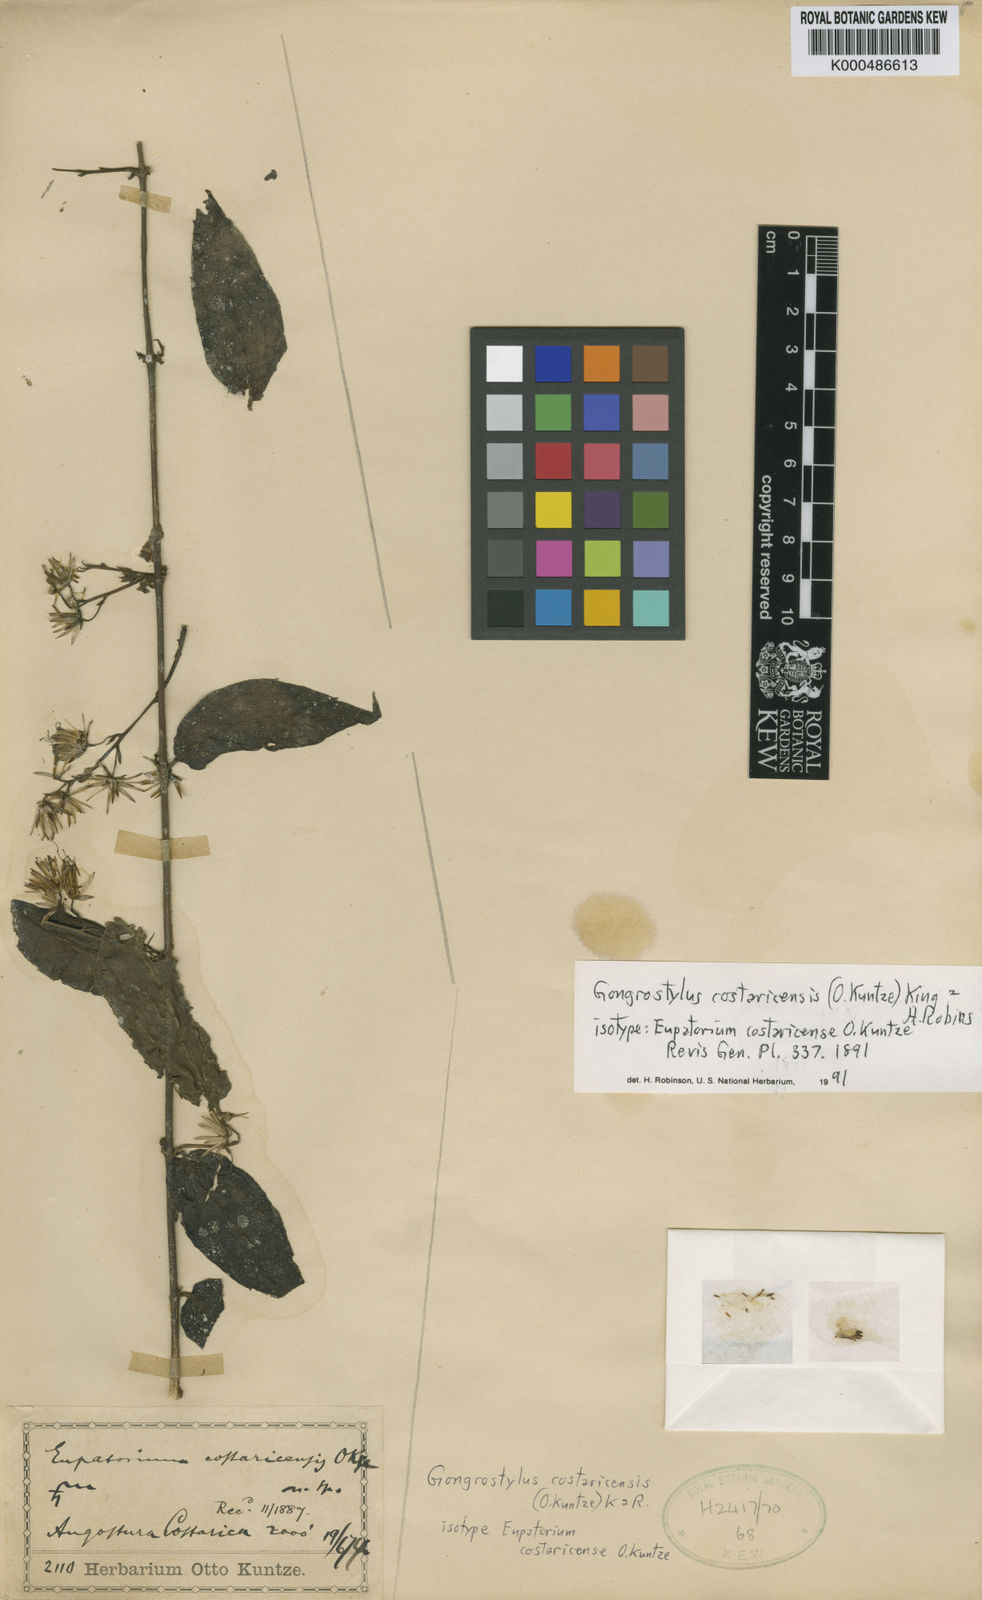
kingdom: Plantae
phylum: Tracheophyta
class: Magnoliopsida
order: Asterales
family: Asteraceae
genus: Gongrostylus
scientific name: Gongrostylus costaricensis
